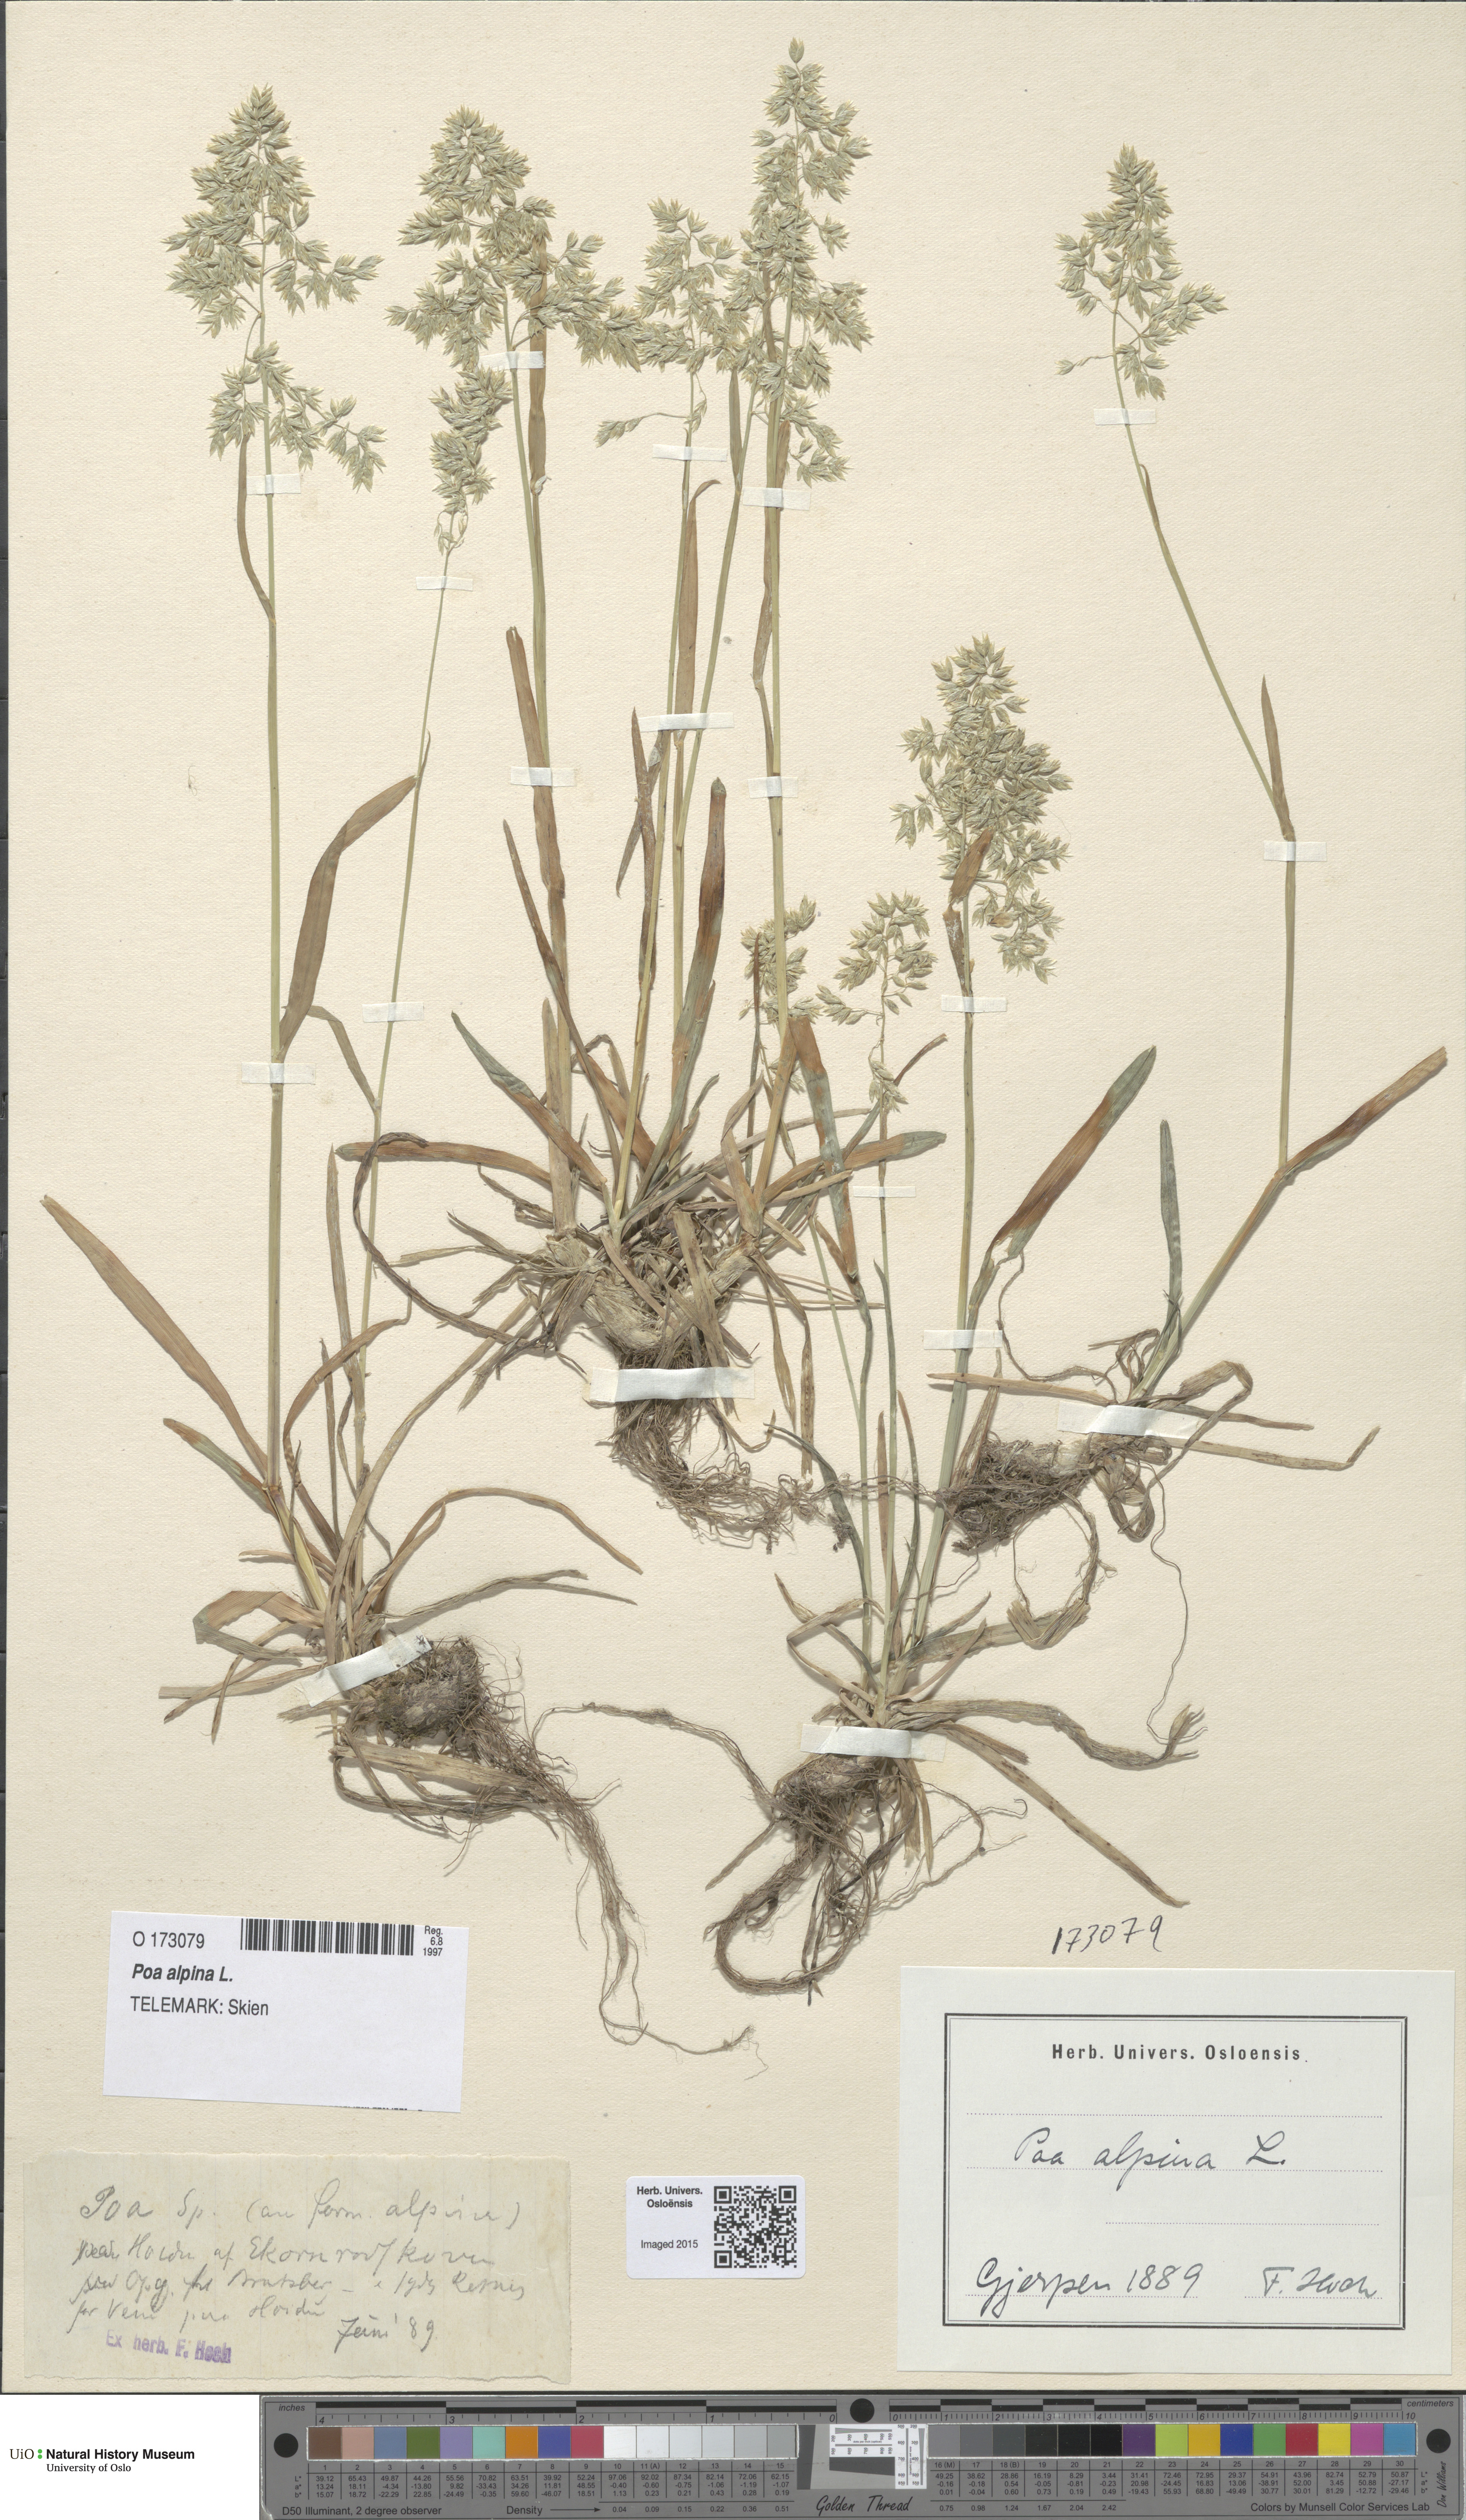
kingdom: Plantae
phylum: Tracheophyta
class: Liliopsida
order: Poales
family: Poaceae
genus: Poa
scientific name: Poa alpina
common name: Alpine bluegrass
